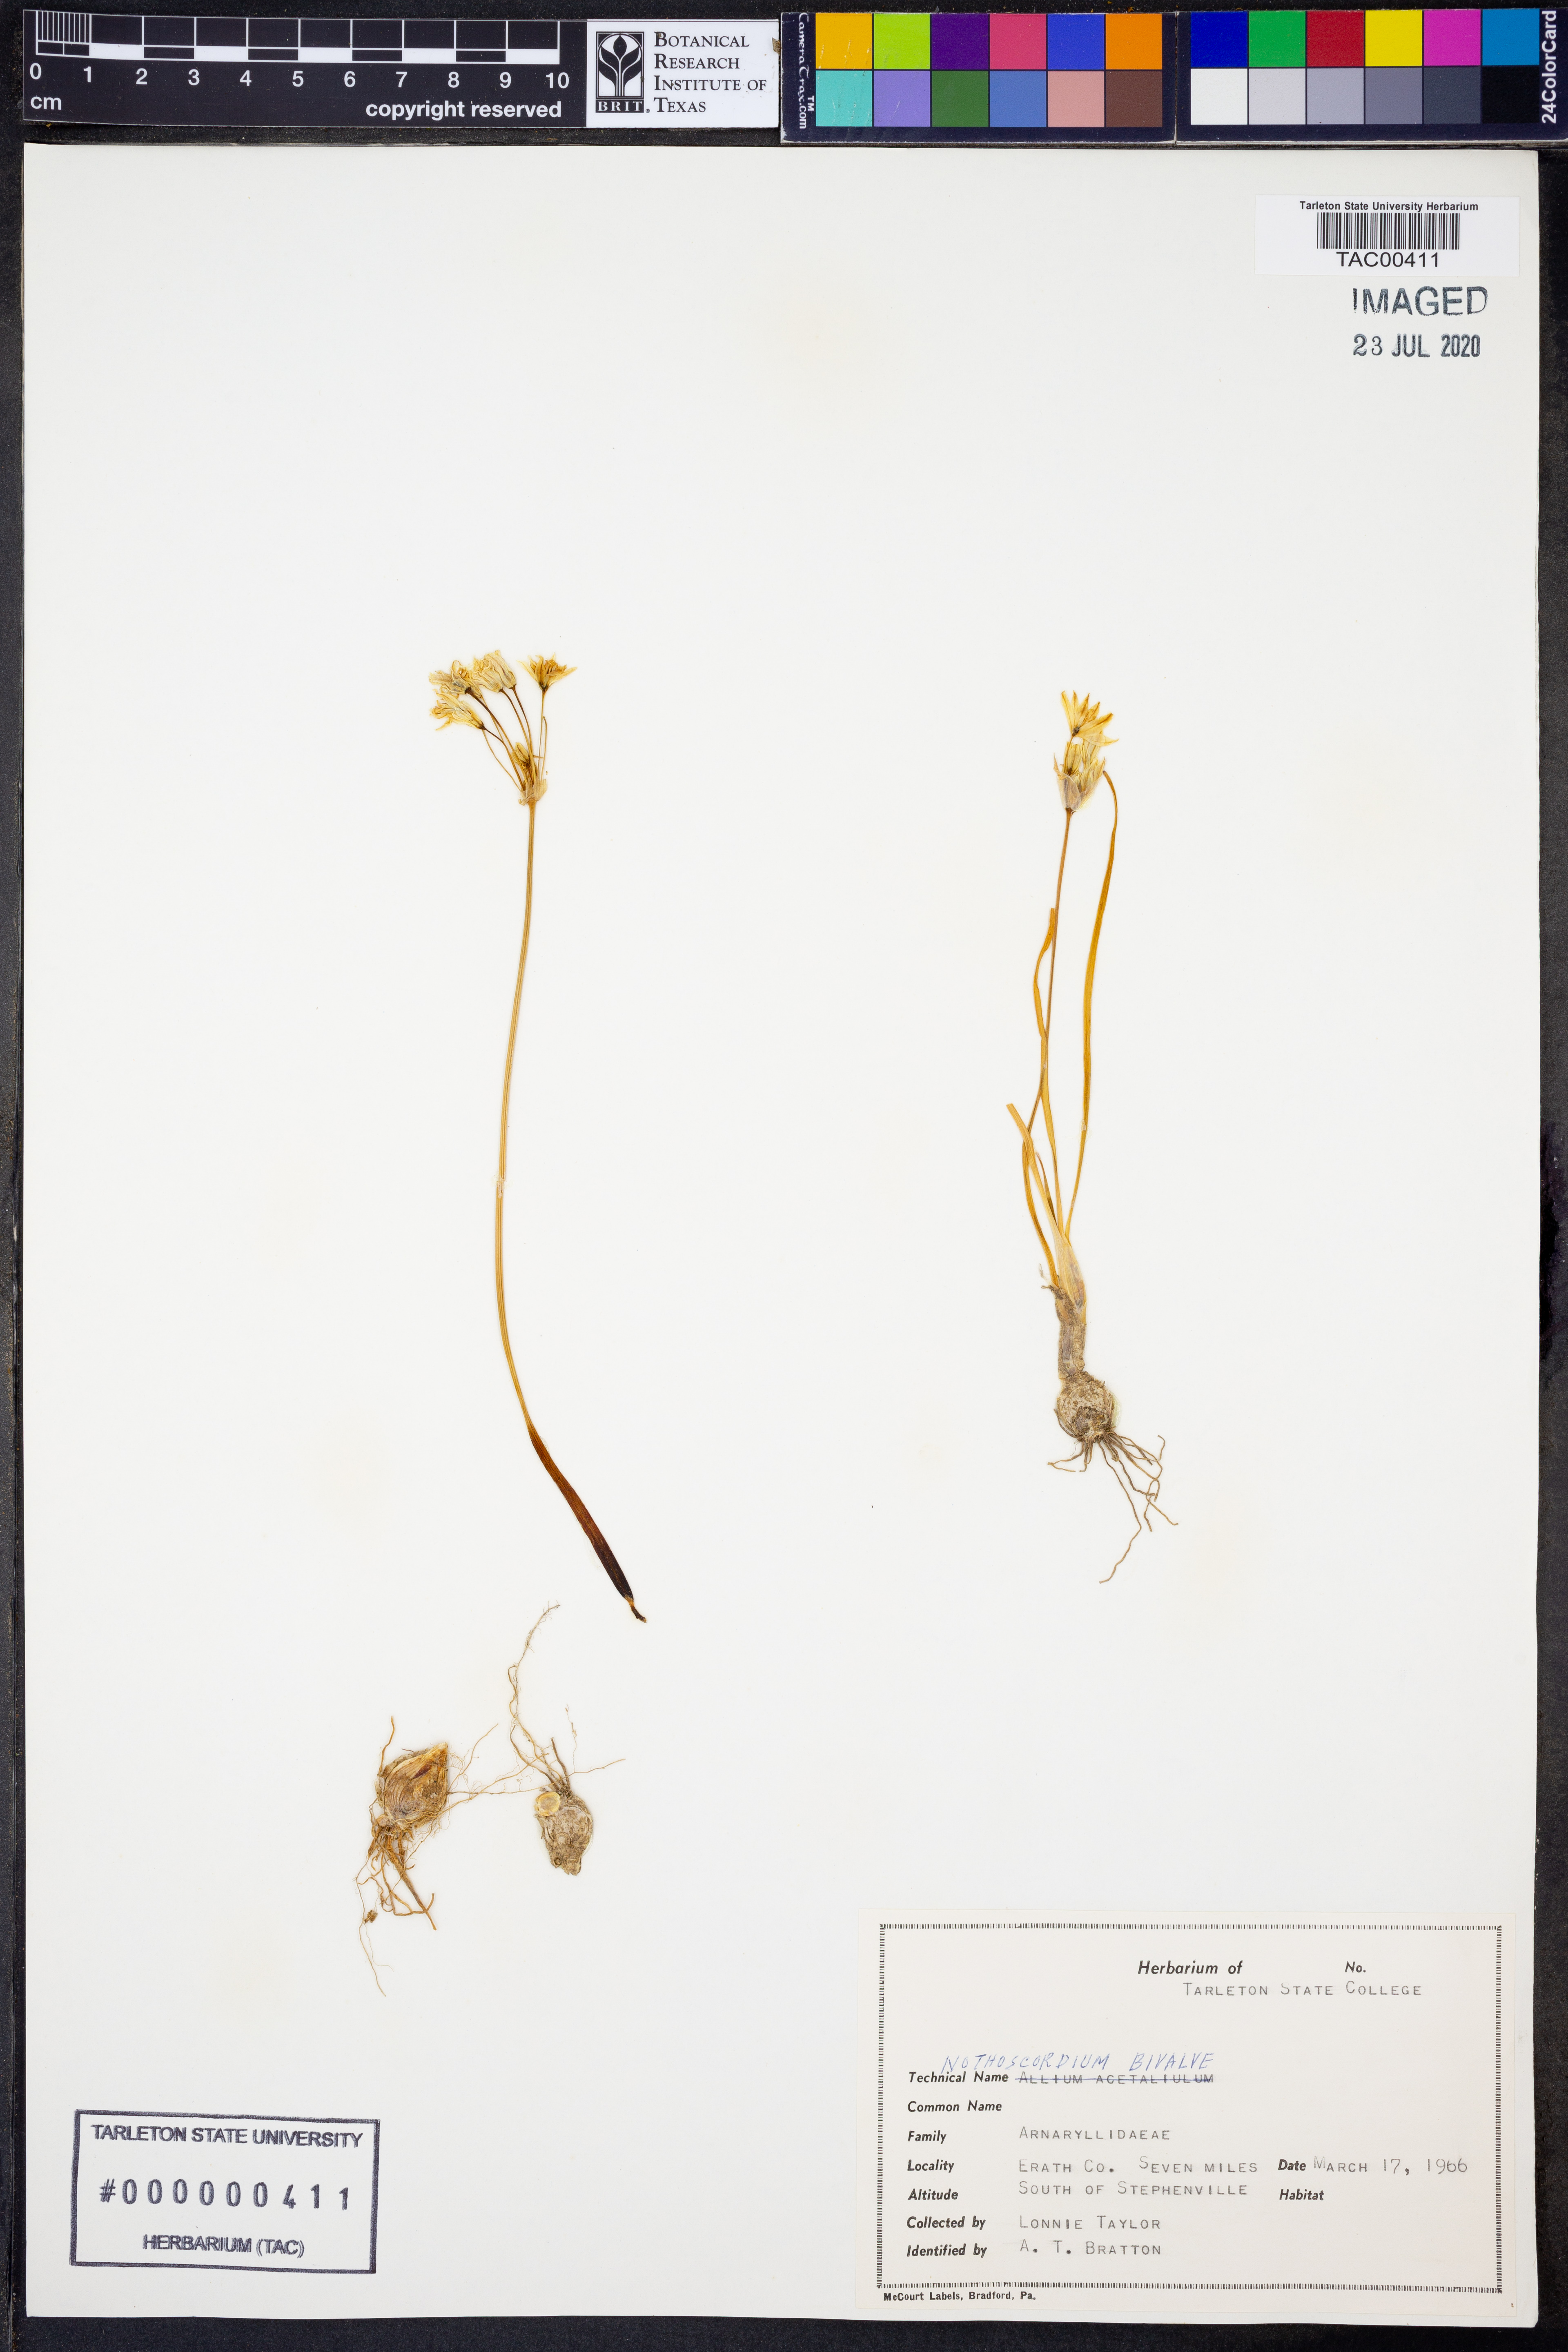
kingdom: Plantae
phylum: Tracheophyta
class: Liliopsida
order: Asparagales
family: Amaryllidaceae
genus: Nothoscordum
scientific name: Nothoscordum bivalve
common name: Crow-poison
